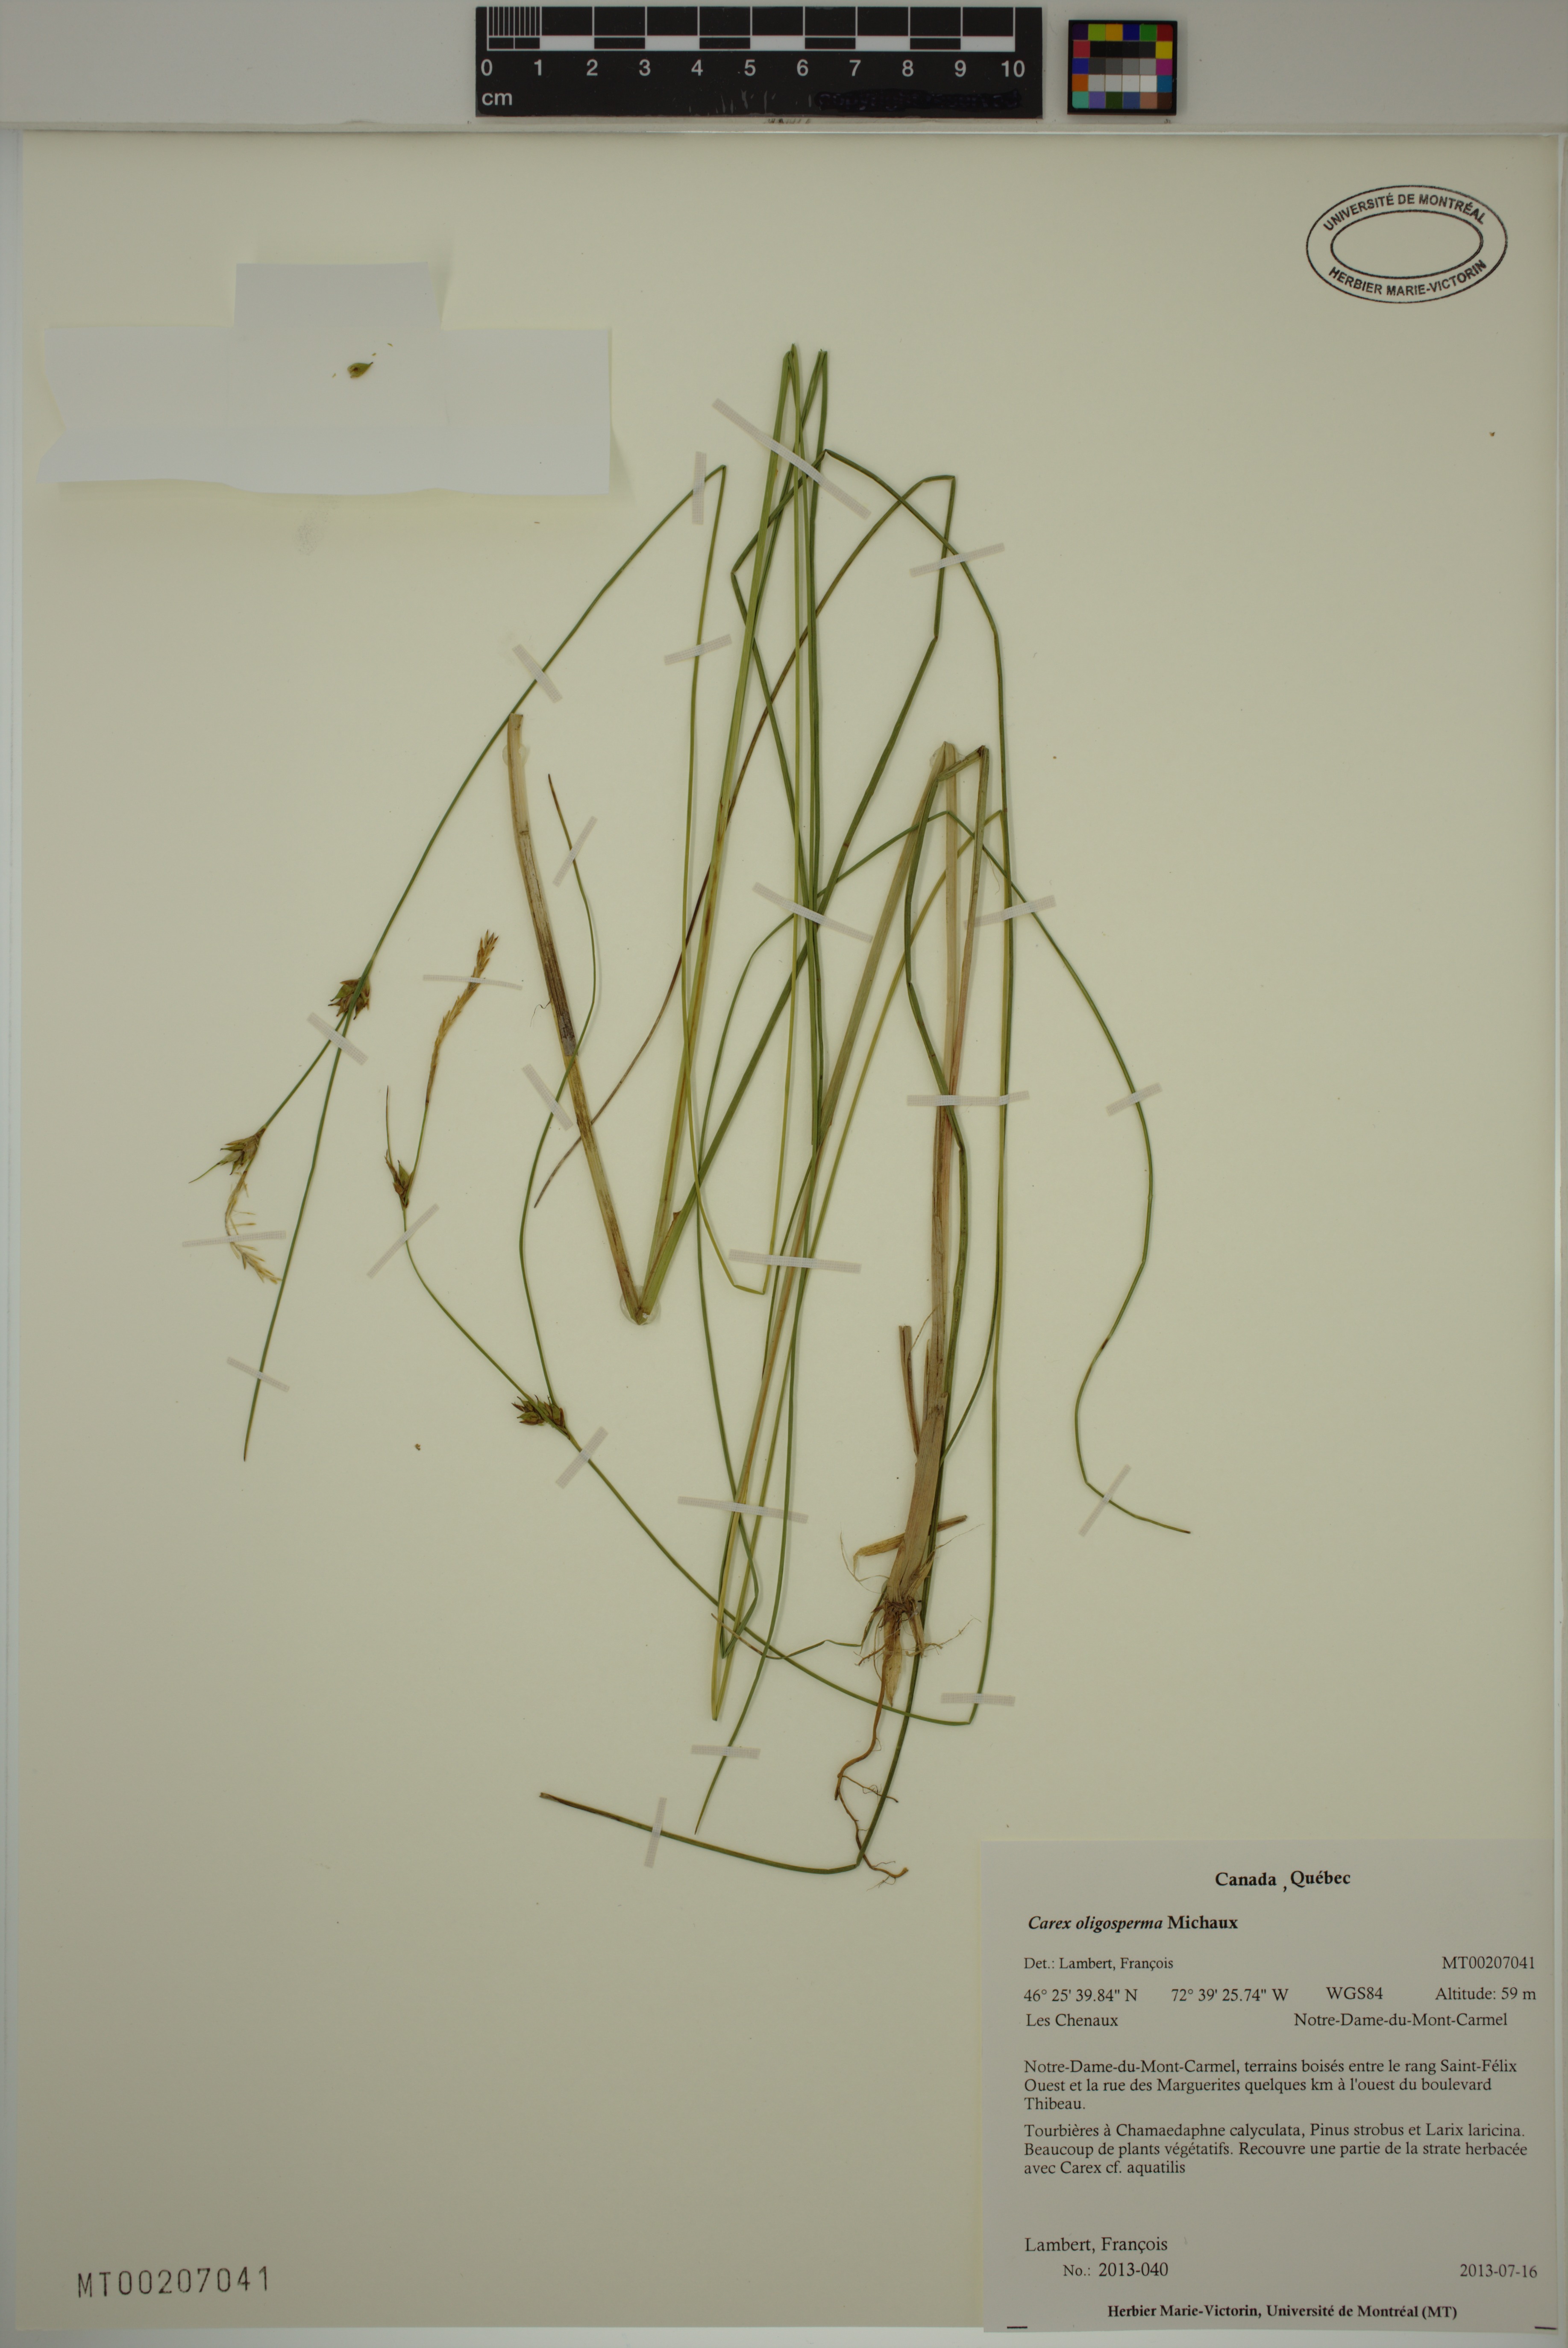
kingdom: Plantae
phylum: Tracheophyta
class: Liliopsida
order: Poales
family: Cyperaceae
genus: Carex
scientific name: Carex oligosperma
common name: Few-seed sedge
